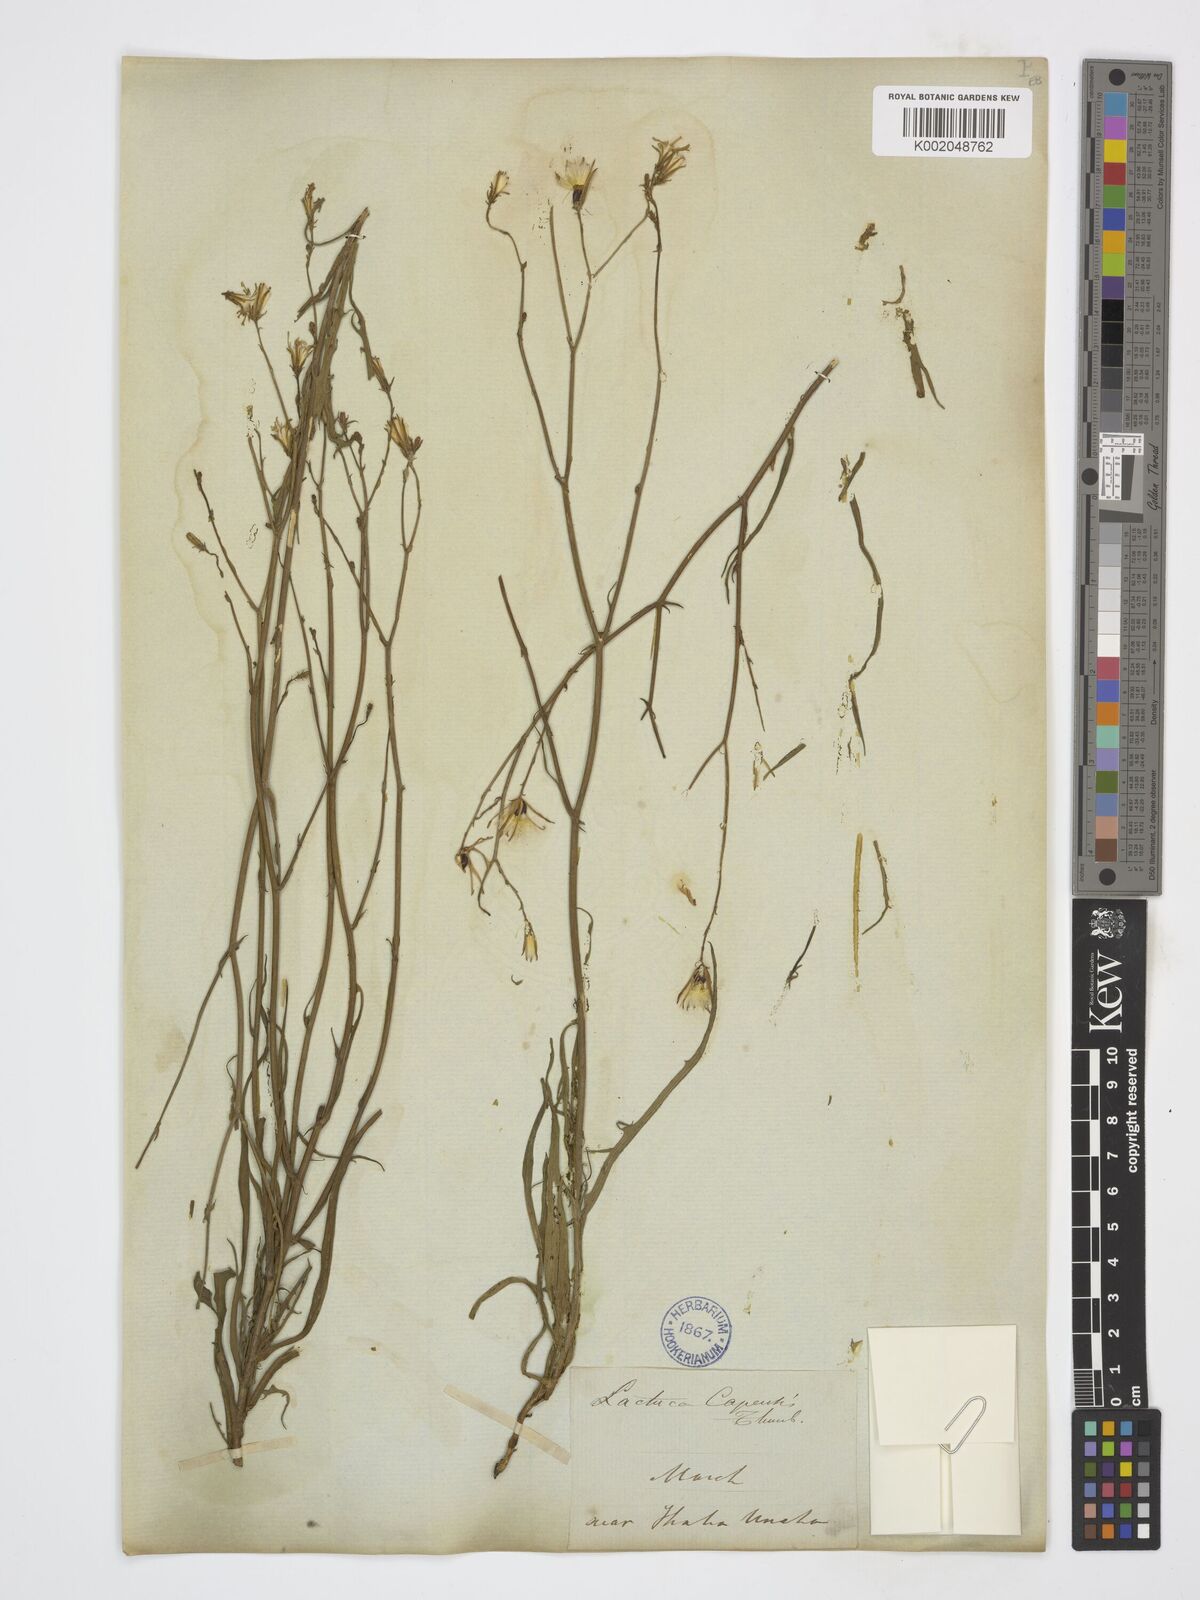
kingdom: Plantae
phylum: Tracheophyta
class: Magnoliopsida
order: Asterales
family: Asteraceae
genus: Lactuca
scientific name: Lactuca inermis
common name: Wild lettuce
